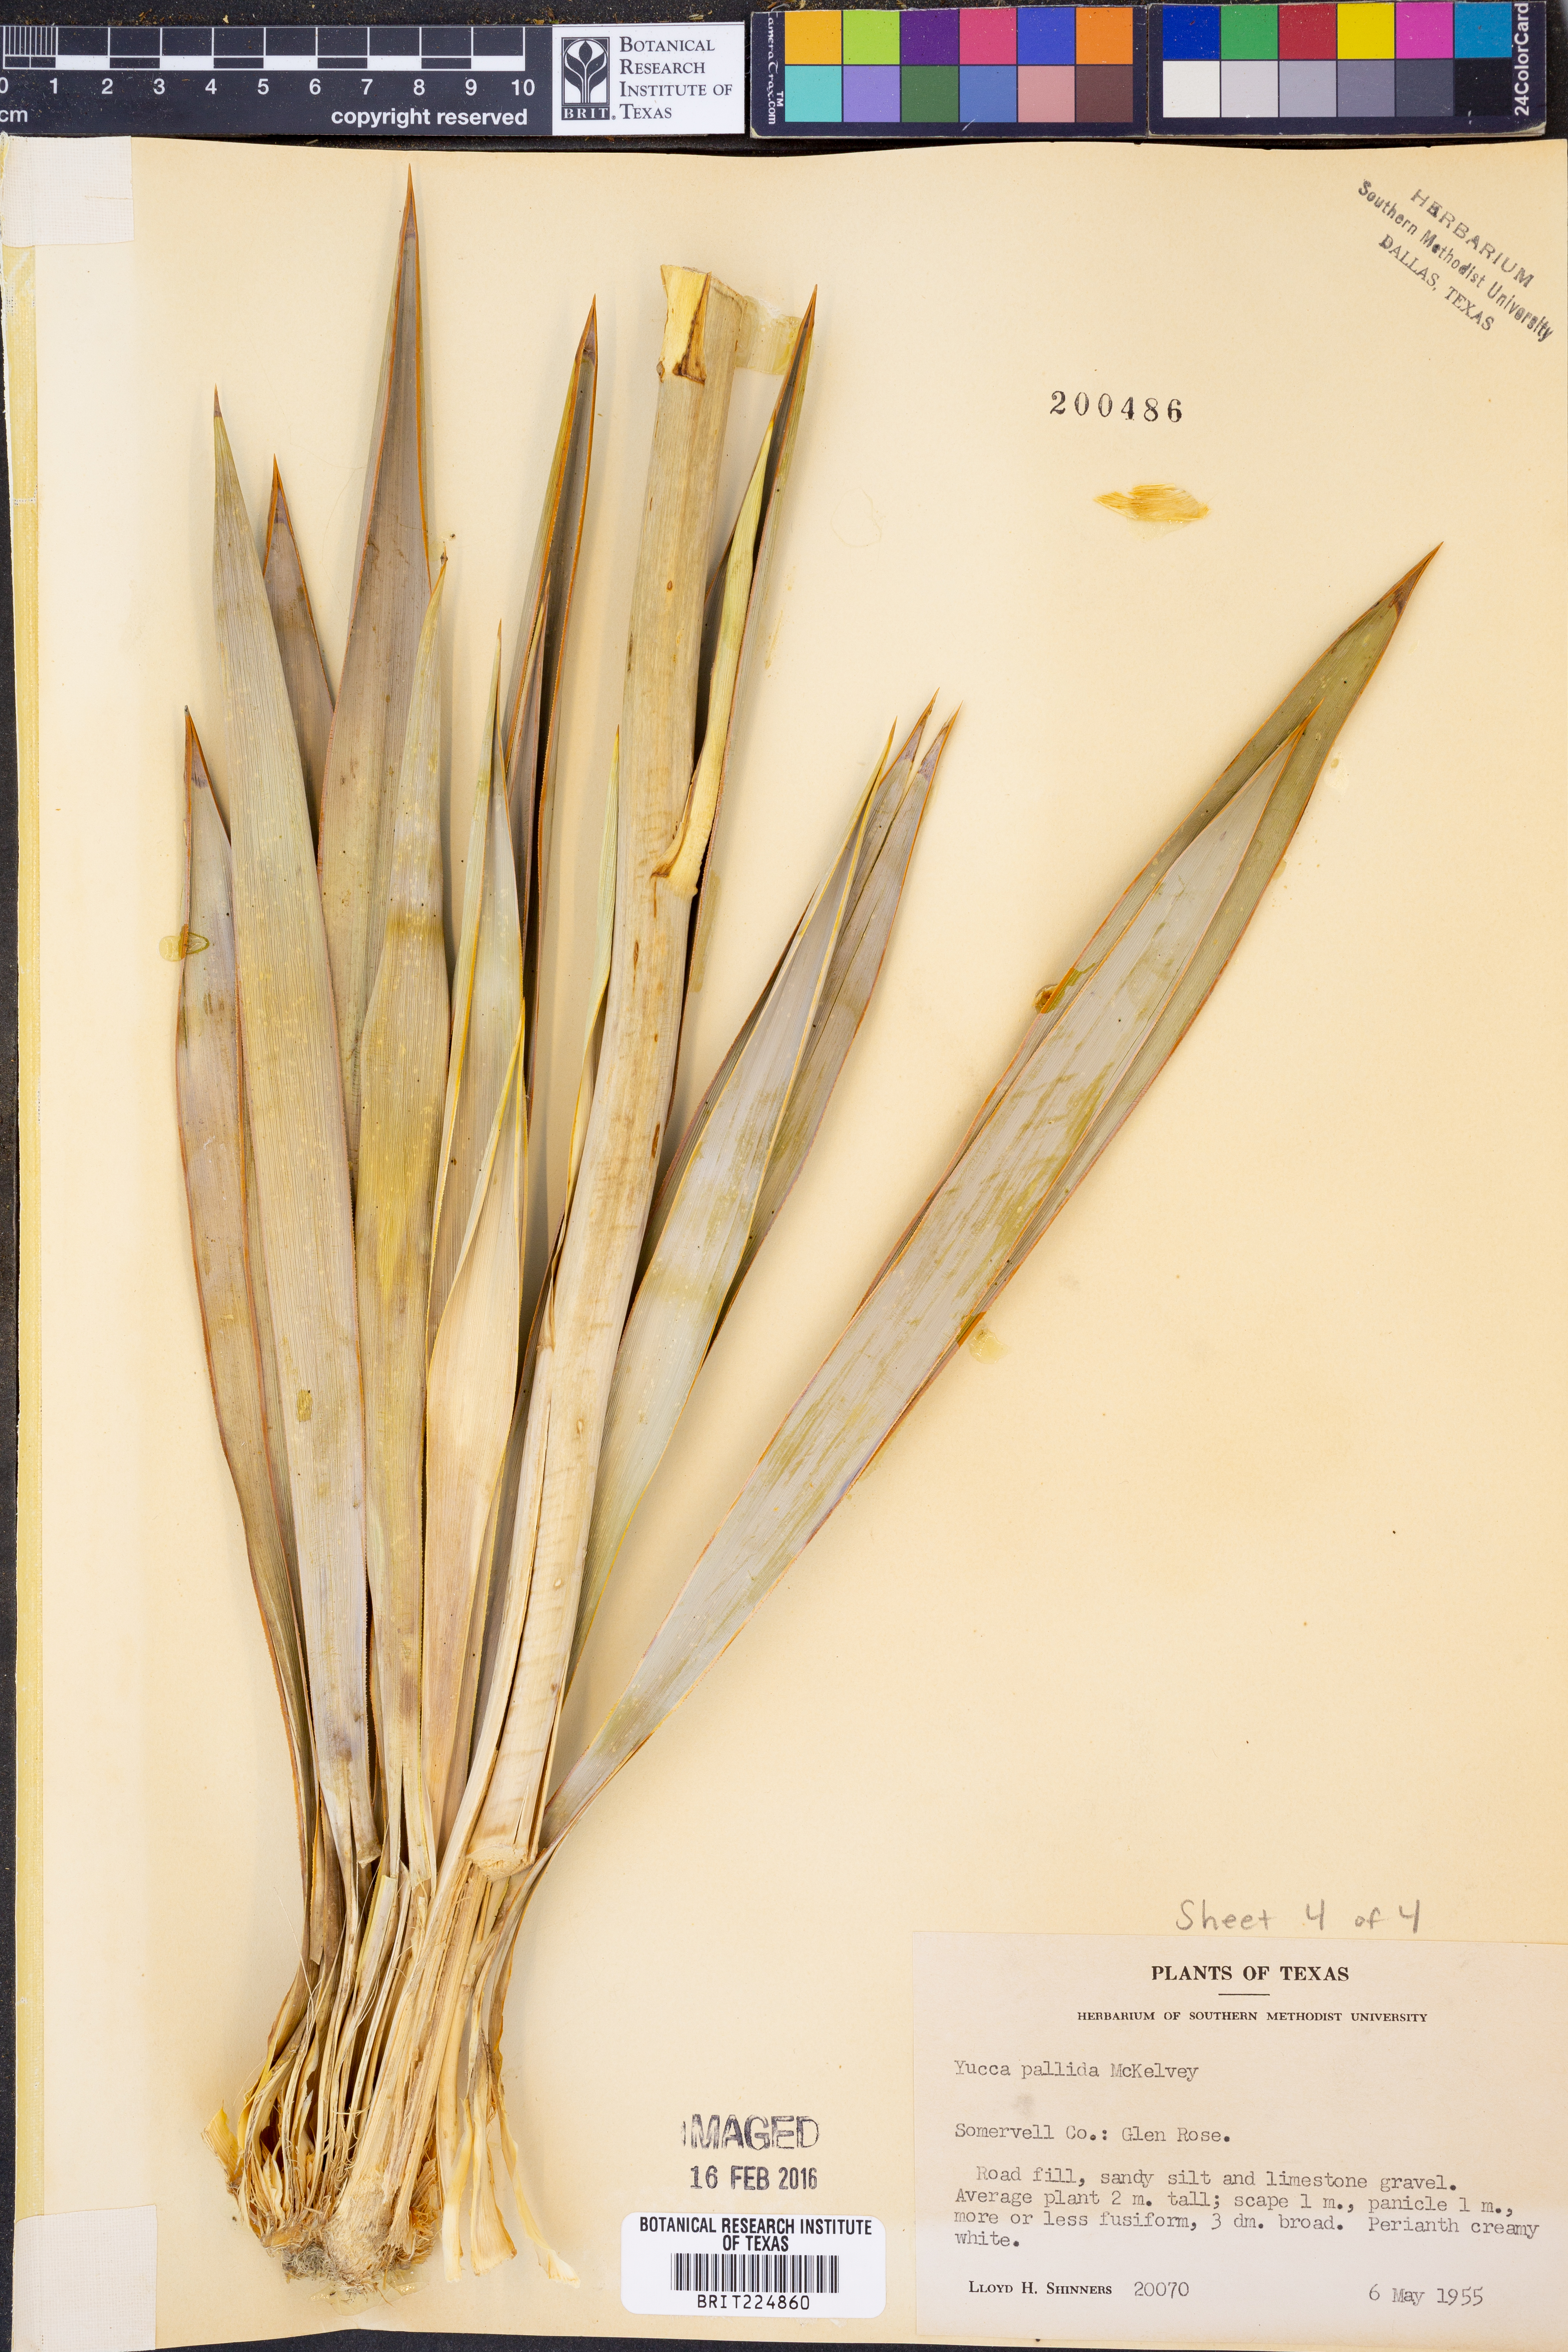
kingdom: Plantae
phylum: Tracheophyta
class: Liliopsida
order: Asparagales
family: Asparagaceae
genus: Yucca
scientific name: Yucca pallida
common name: Pale leaf yucca
